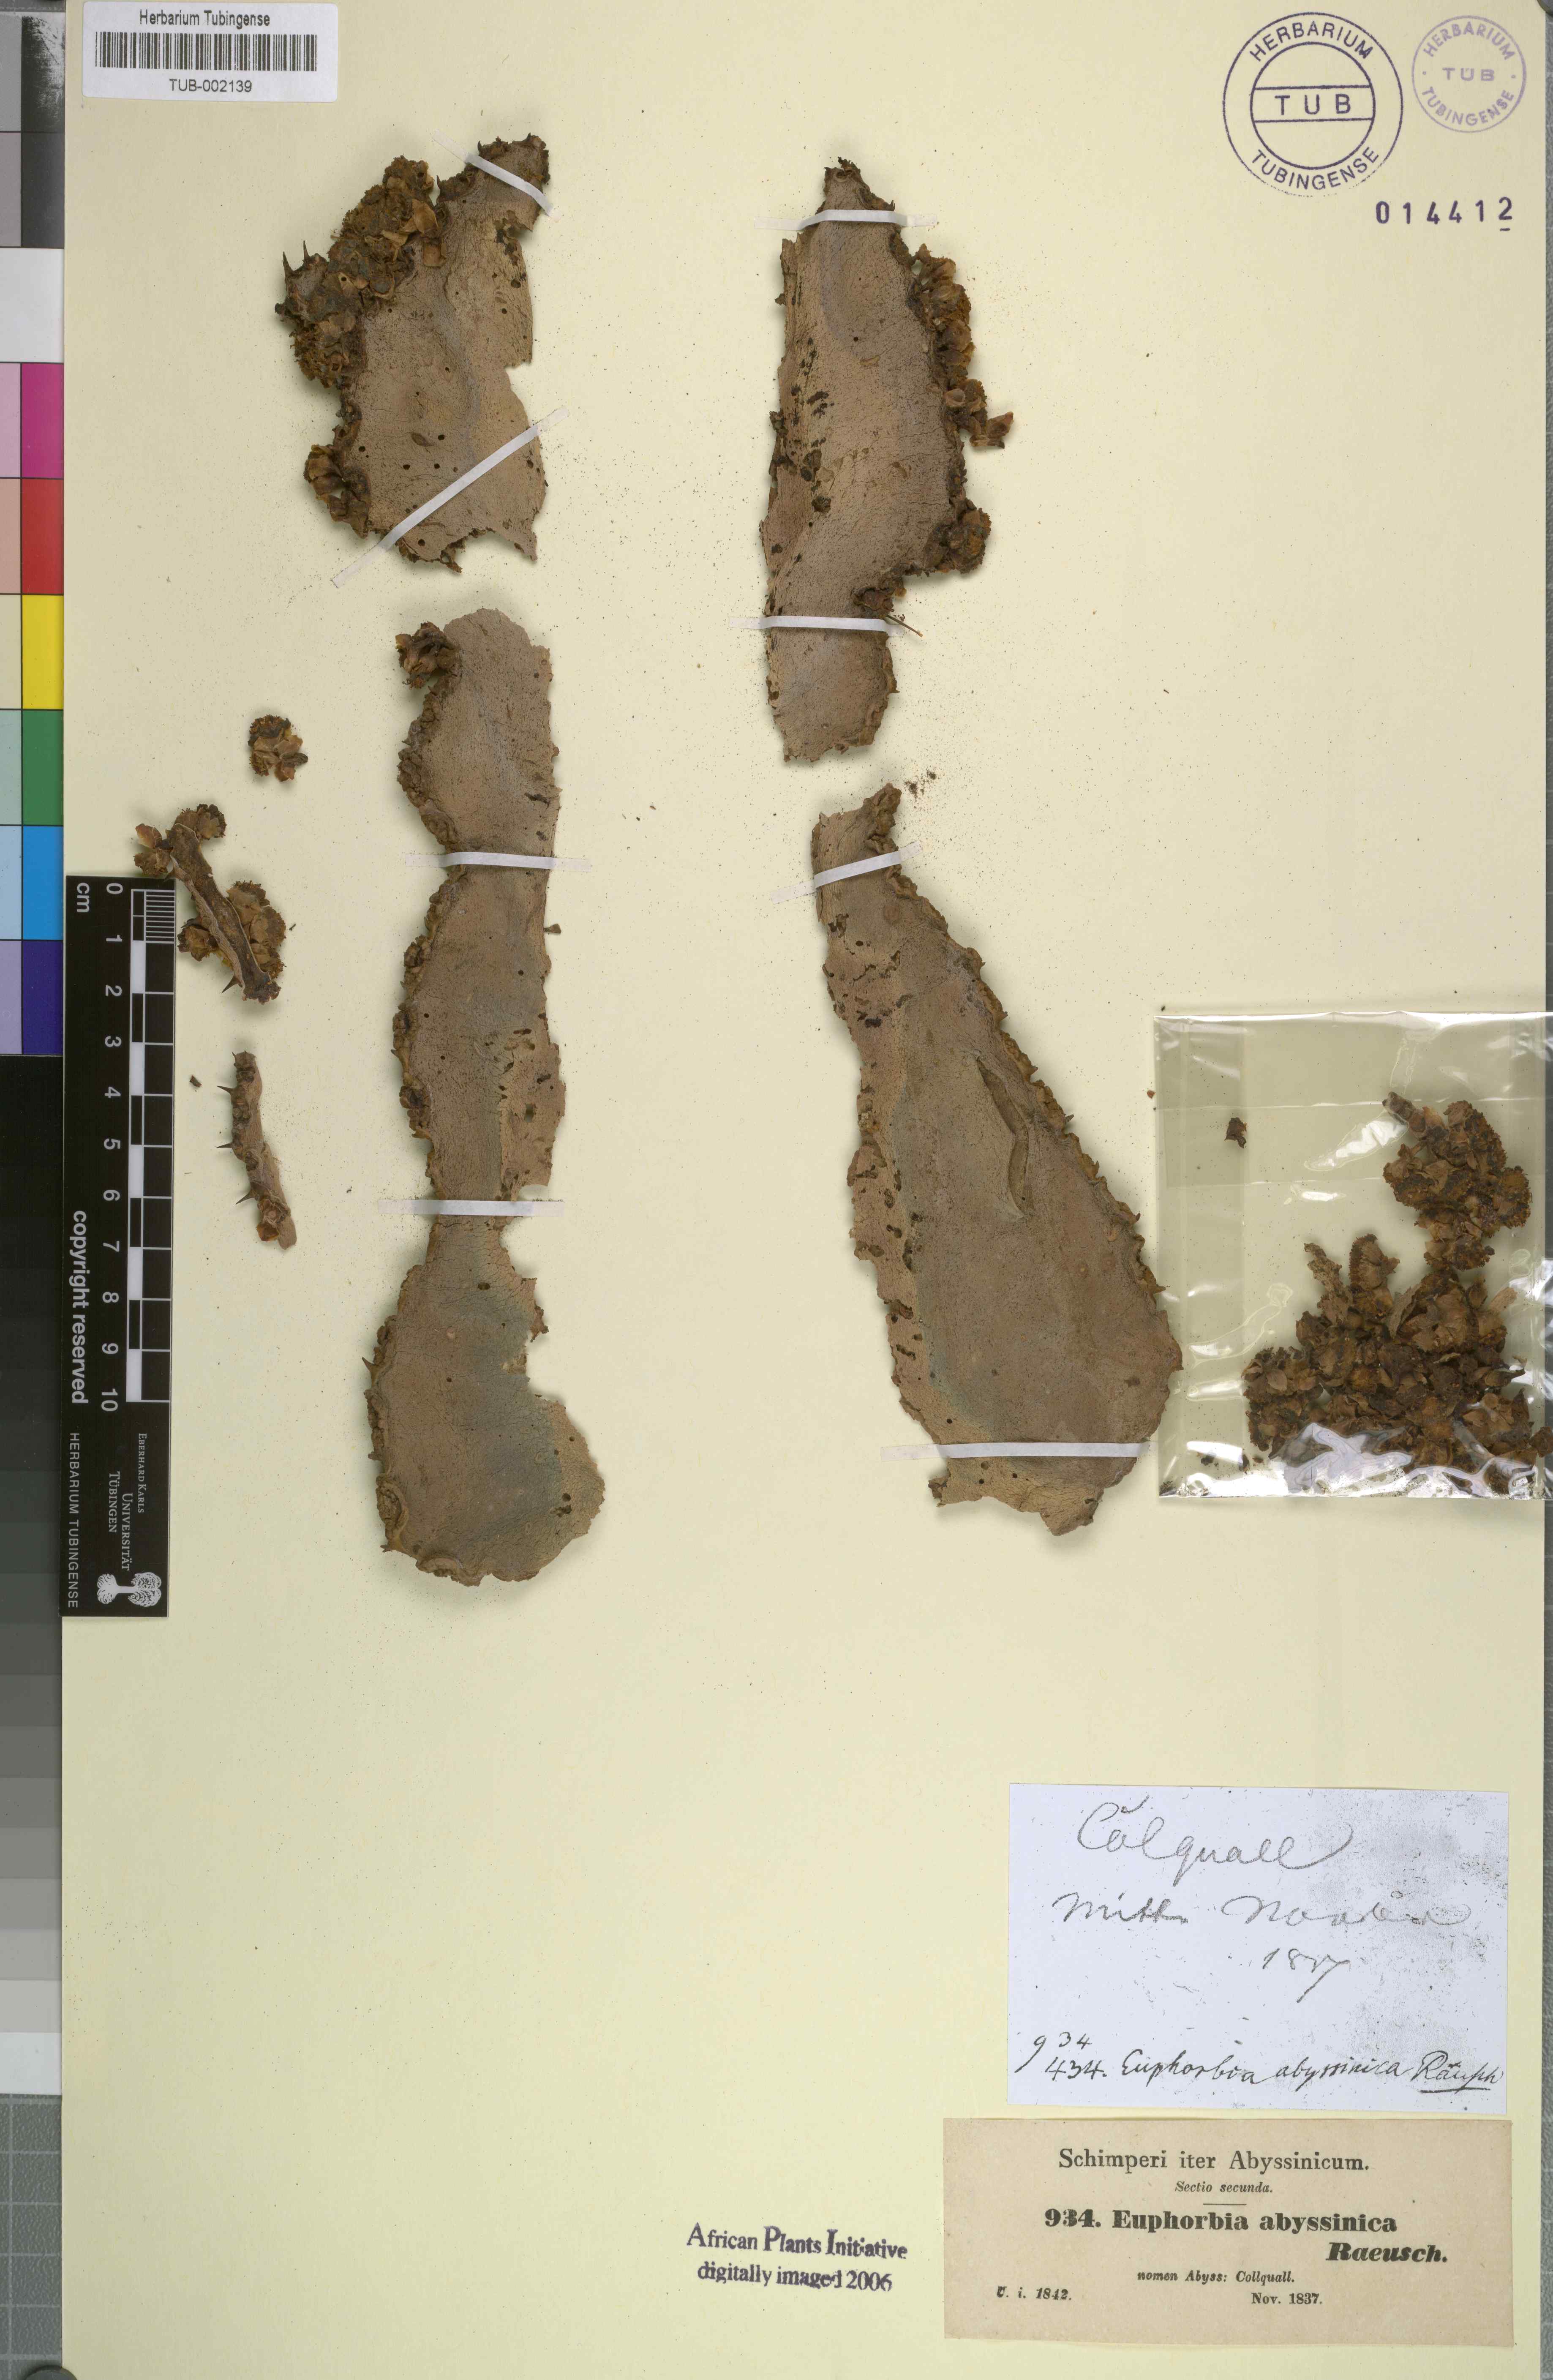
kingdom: Plantae
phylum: Tracheophyta
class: Magnoliopsida
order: Malpighiales
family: Euphorbiaceae
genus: Euphorbia
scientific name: Euphorbia abyssinica
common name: Abyssinian spurge
